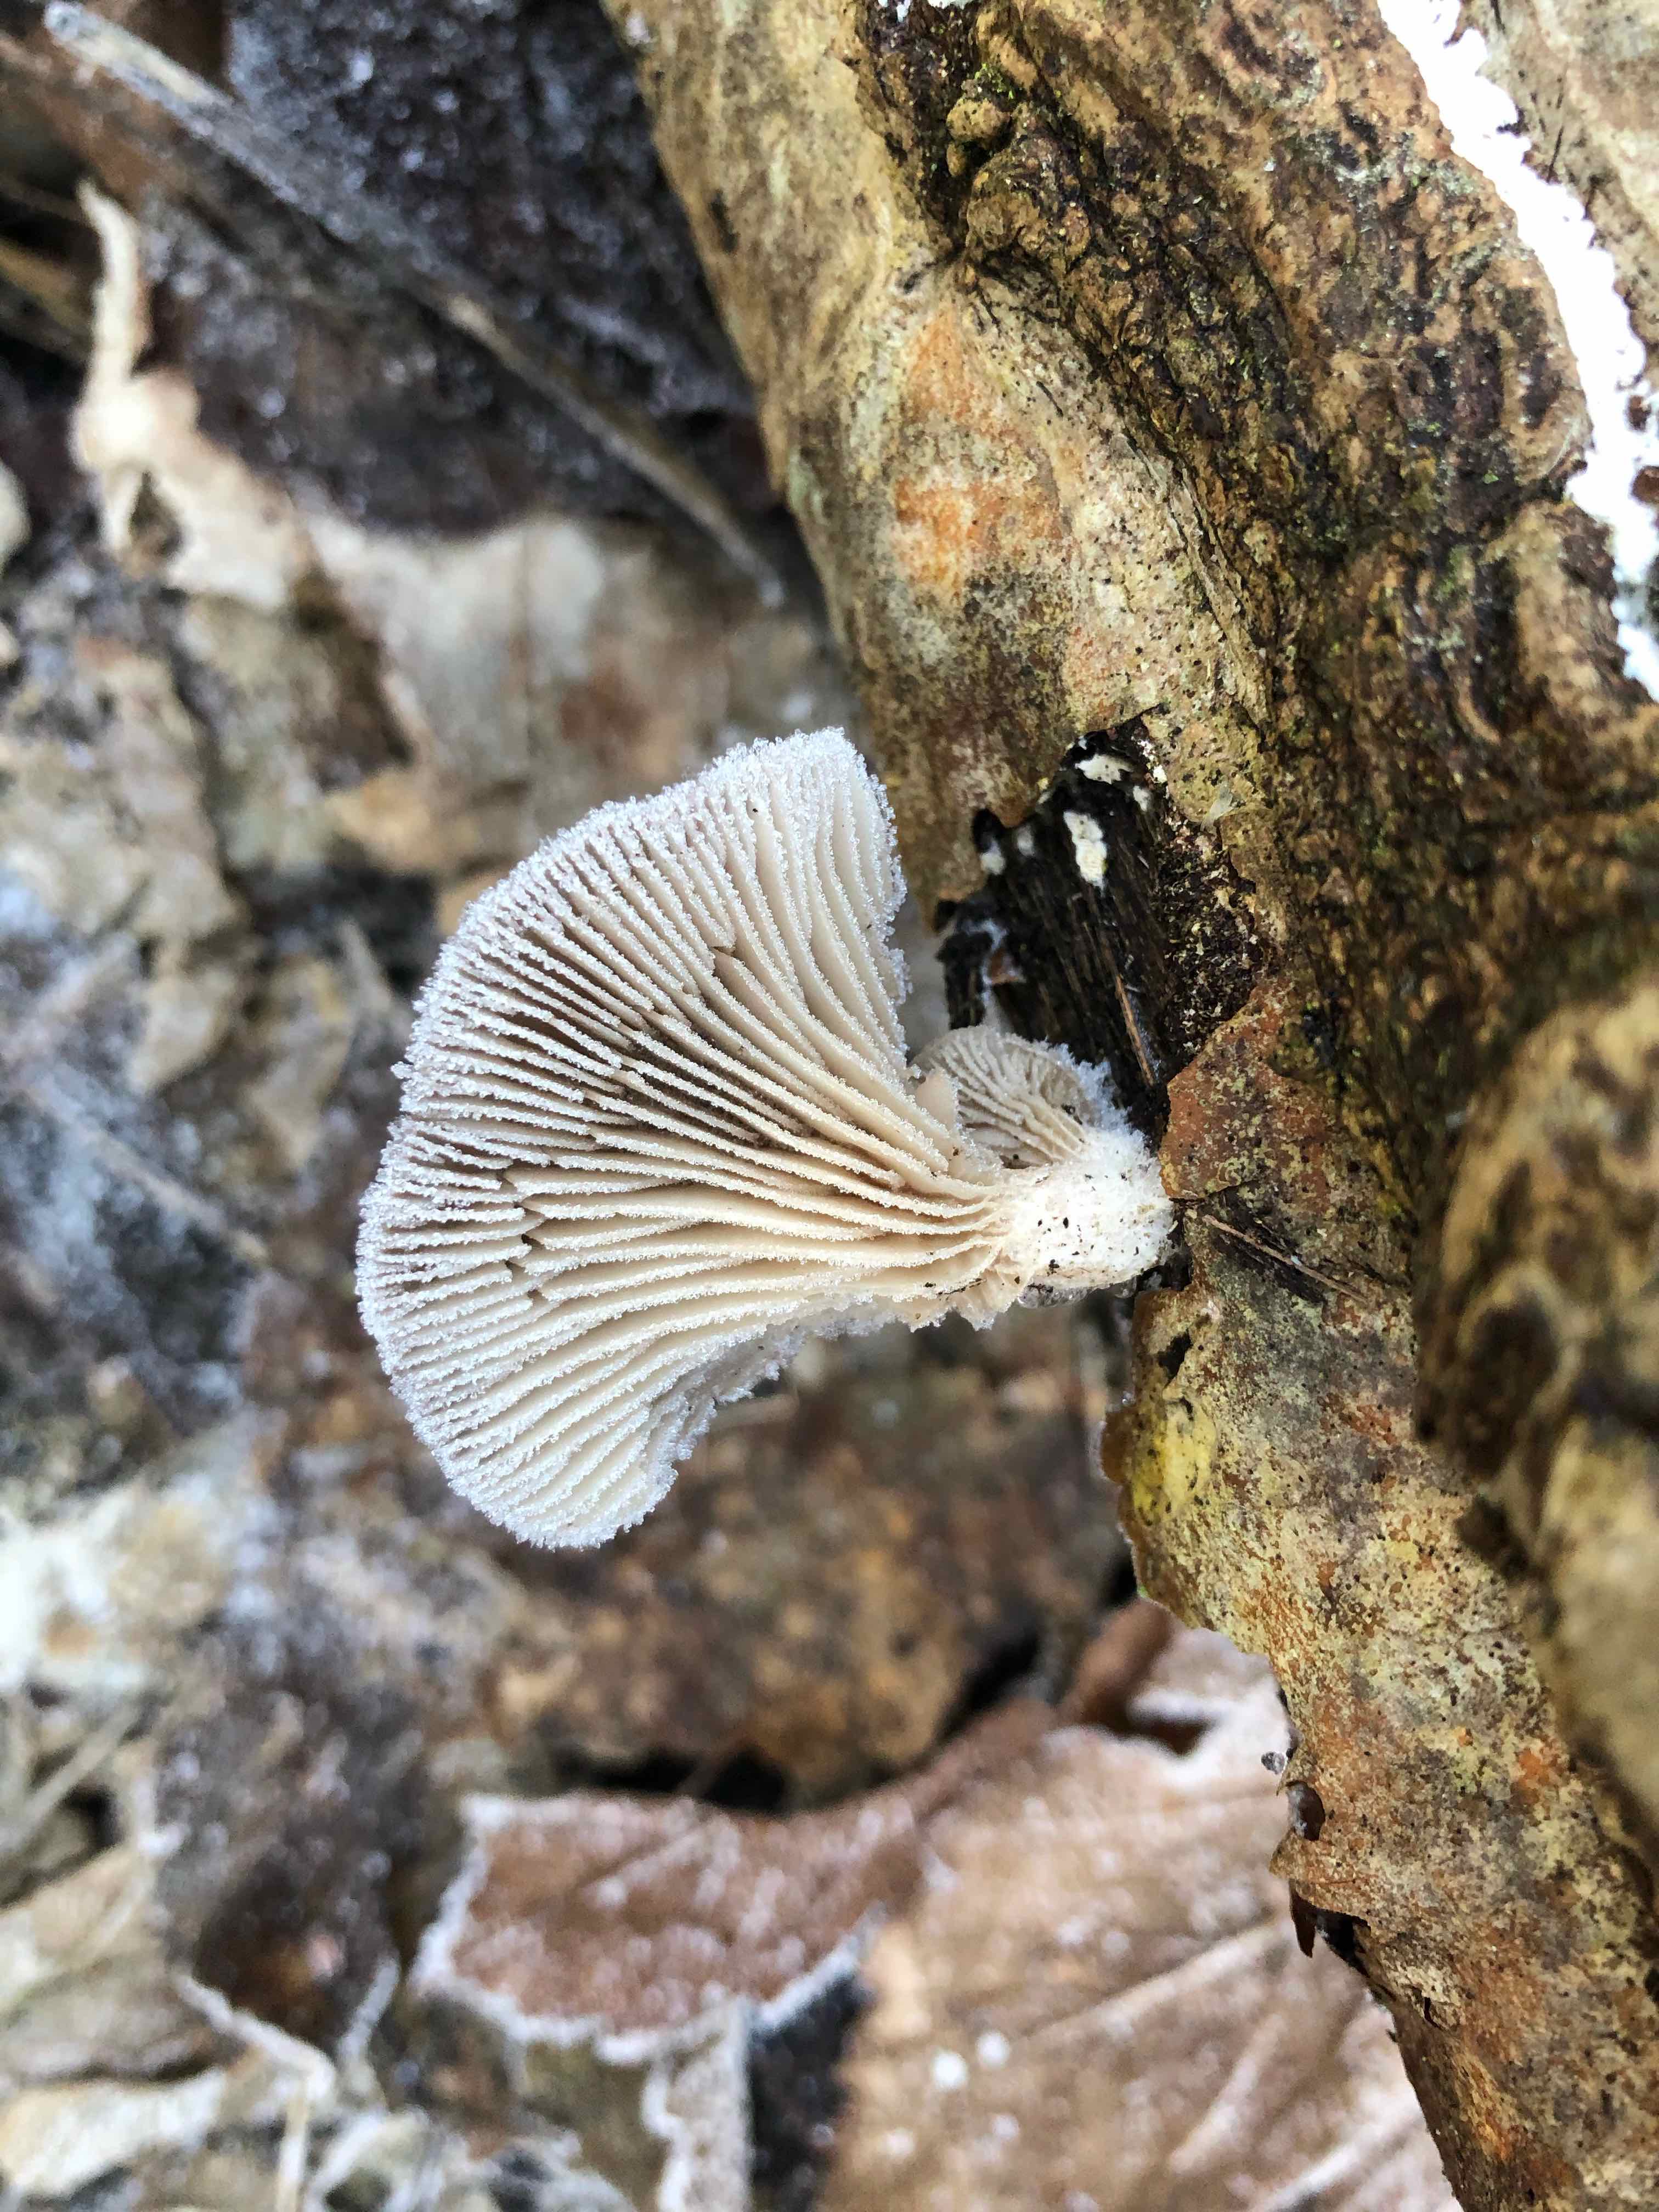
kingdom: Fungi
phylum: Basidiomycota
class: Agaricomycetes
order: Agaricales
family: Pleurotaceae
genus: Pleurotus
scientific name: Pleurotus ostreatus
